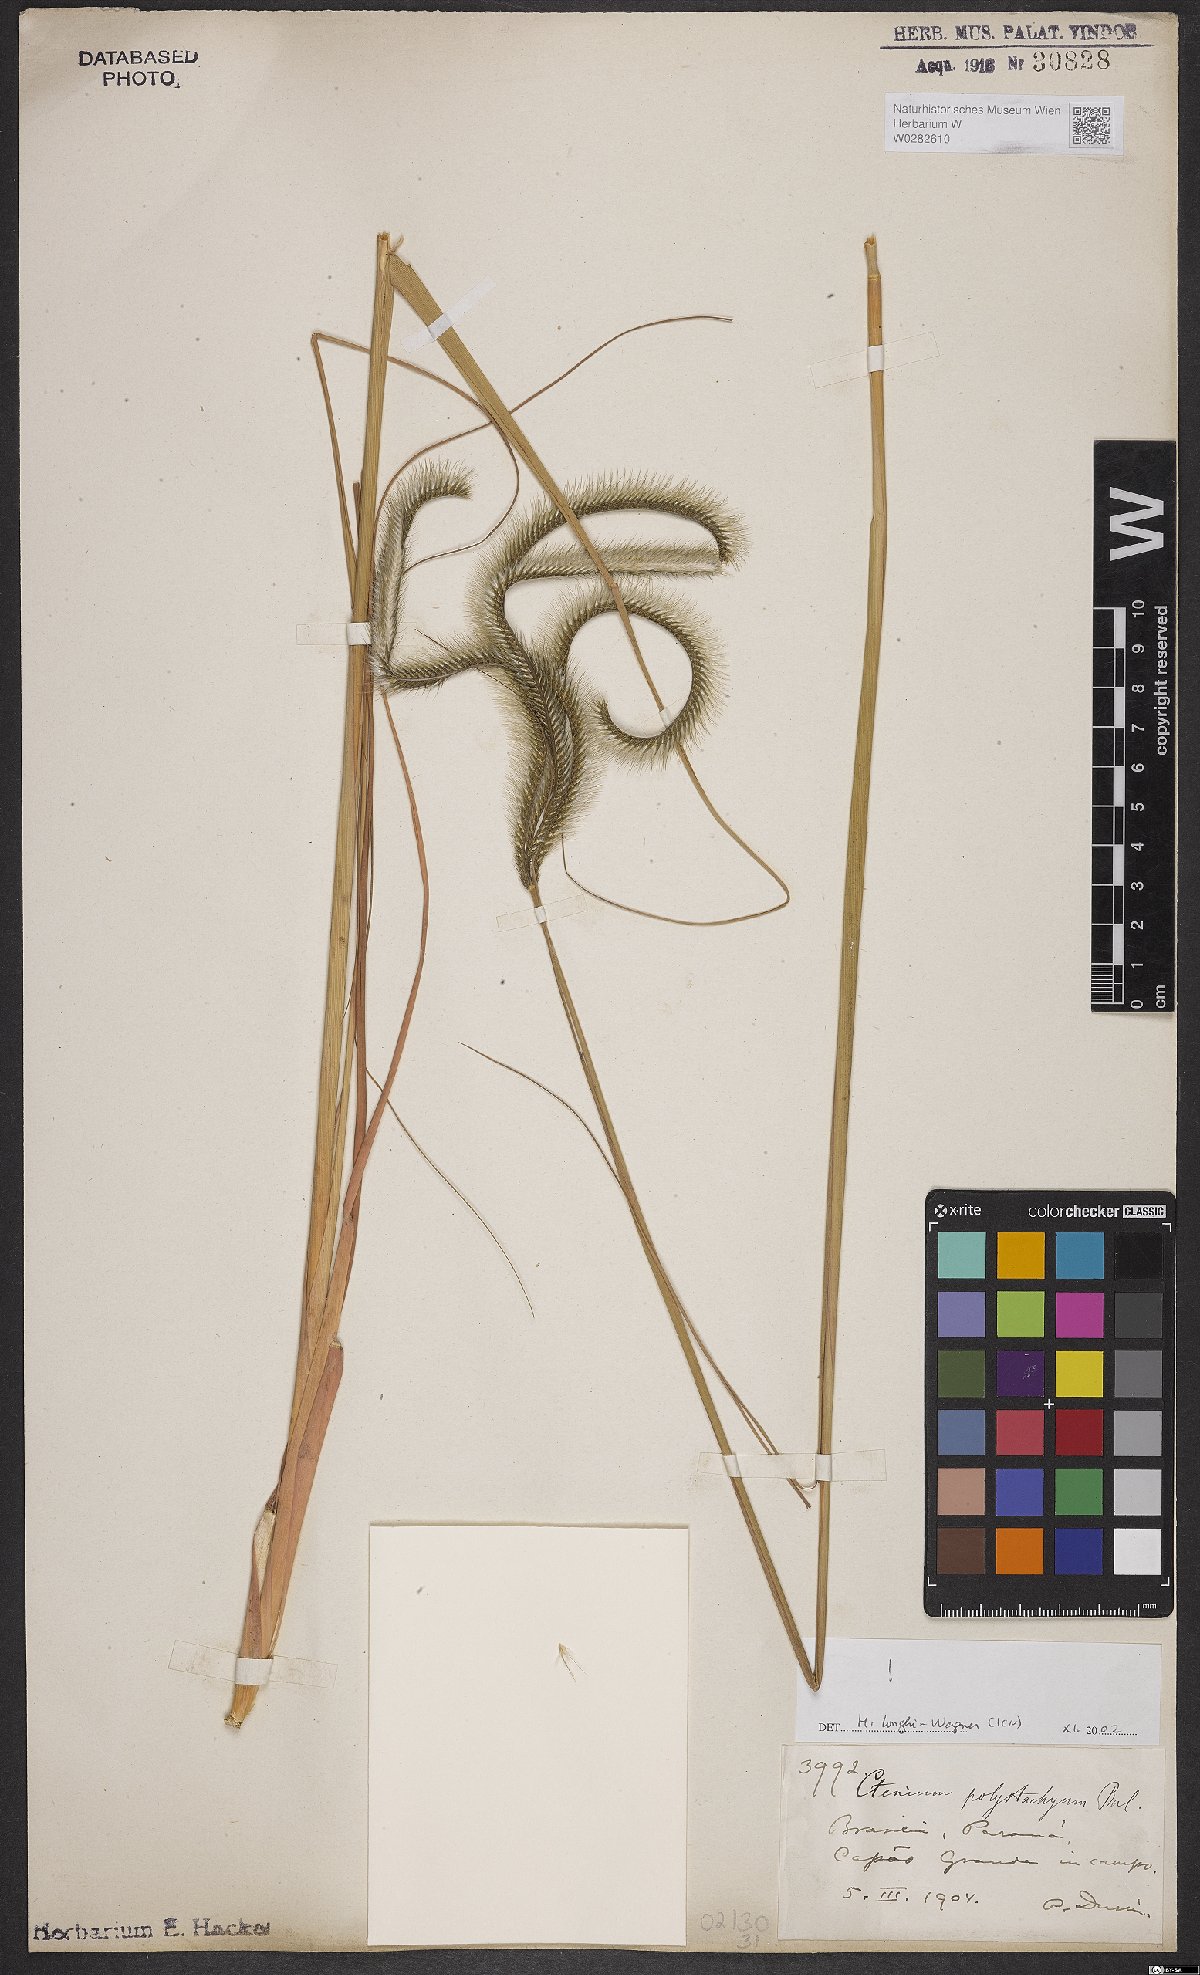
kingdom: Plantae
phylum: Tracheophyta
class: Liliopsida
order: Poales
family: Poaceae
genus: Ctenium
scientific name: Ctenium polystachyum
